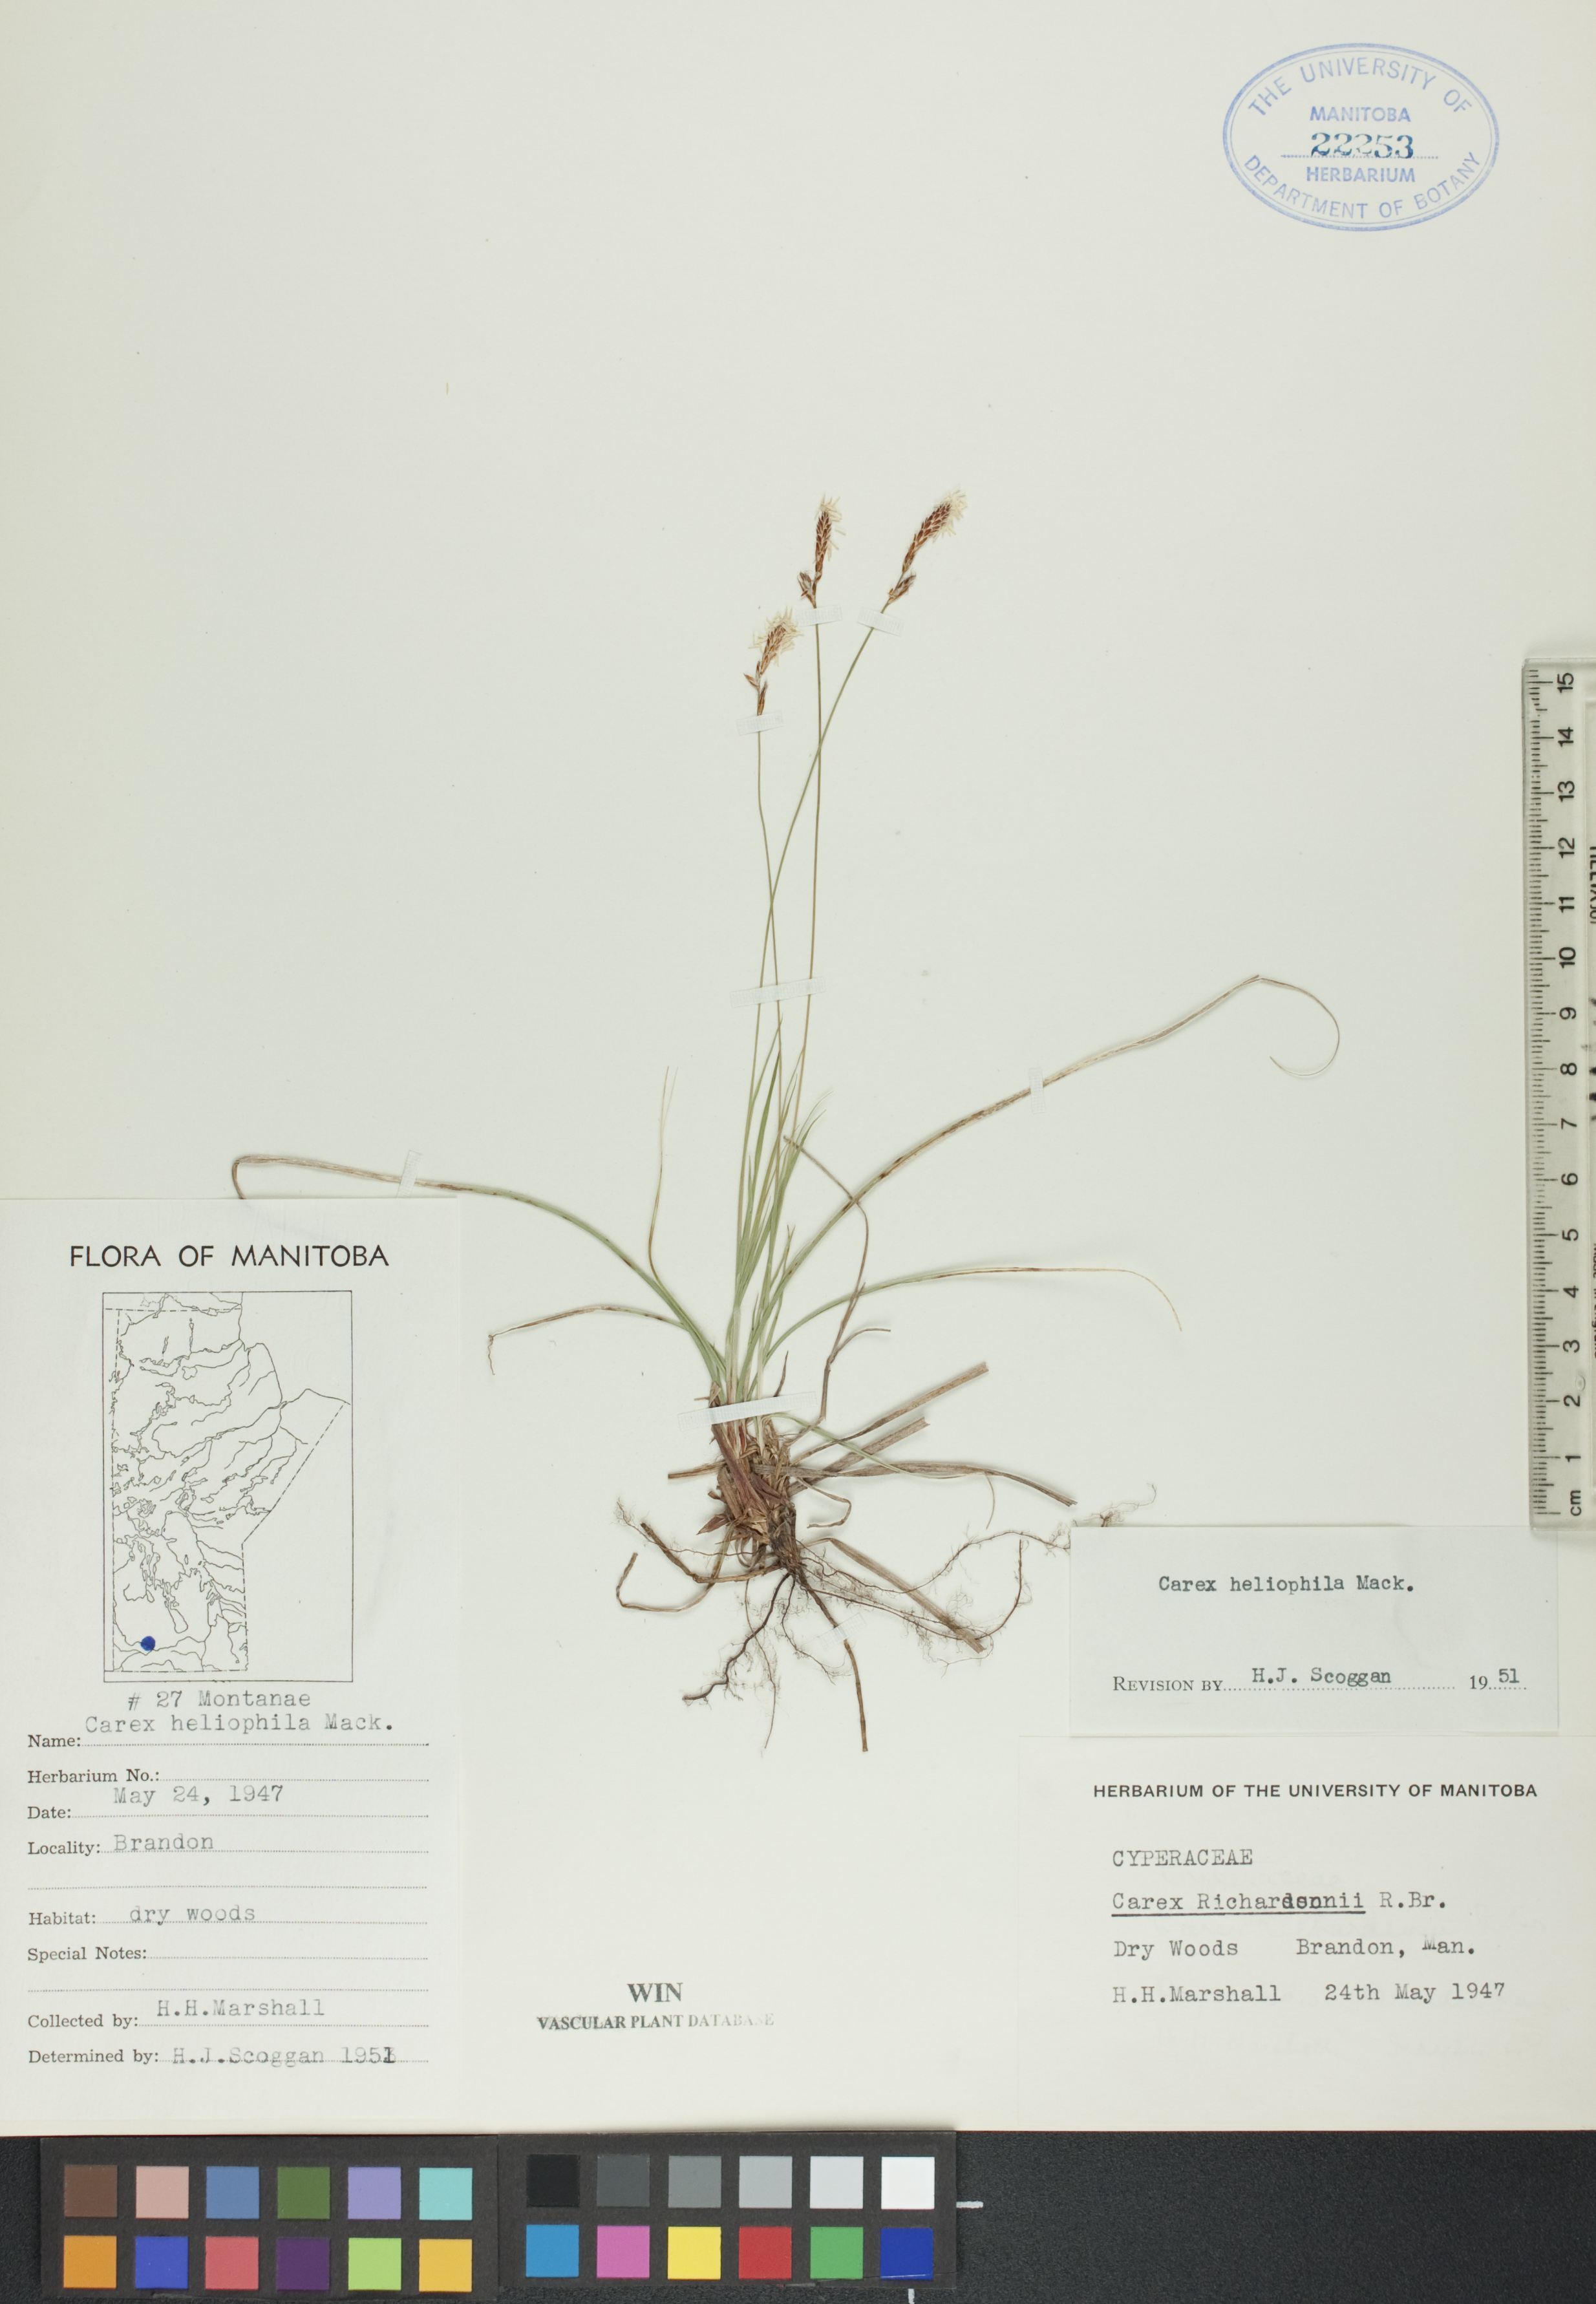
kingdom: Plantae
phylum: Tracheophyta
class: Liliopsida
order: Poales
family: Cyperaceae
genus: Carex
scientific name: Carex inops
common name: Long-stolon sedge
